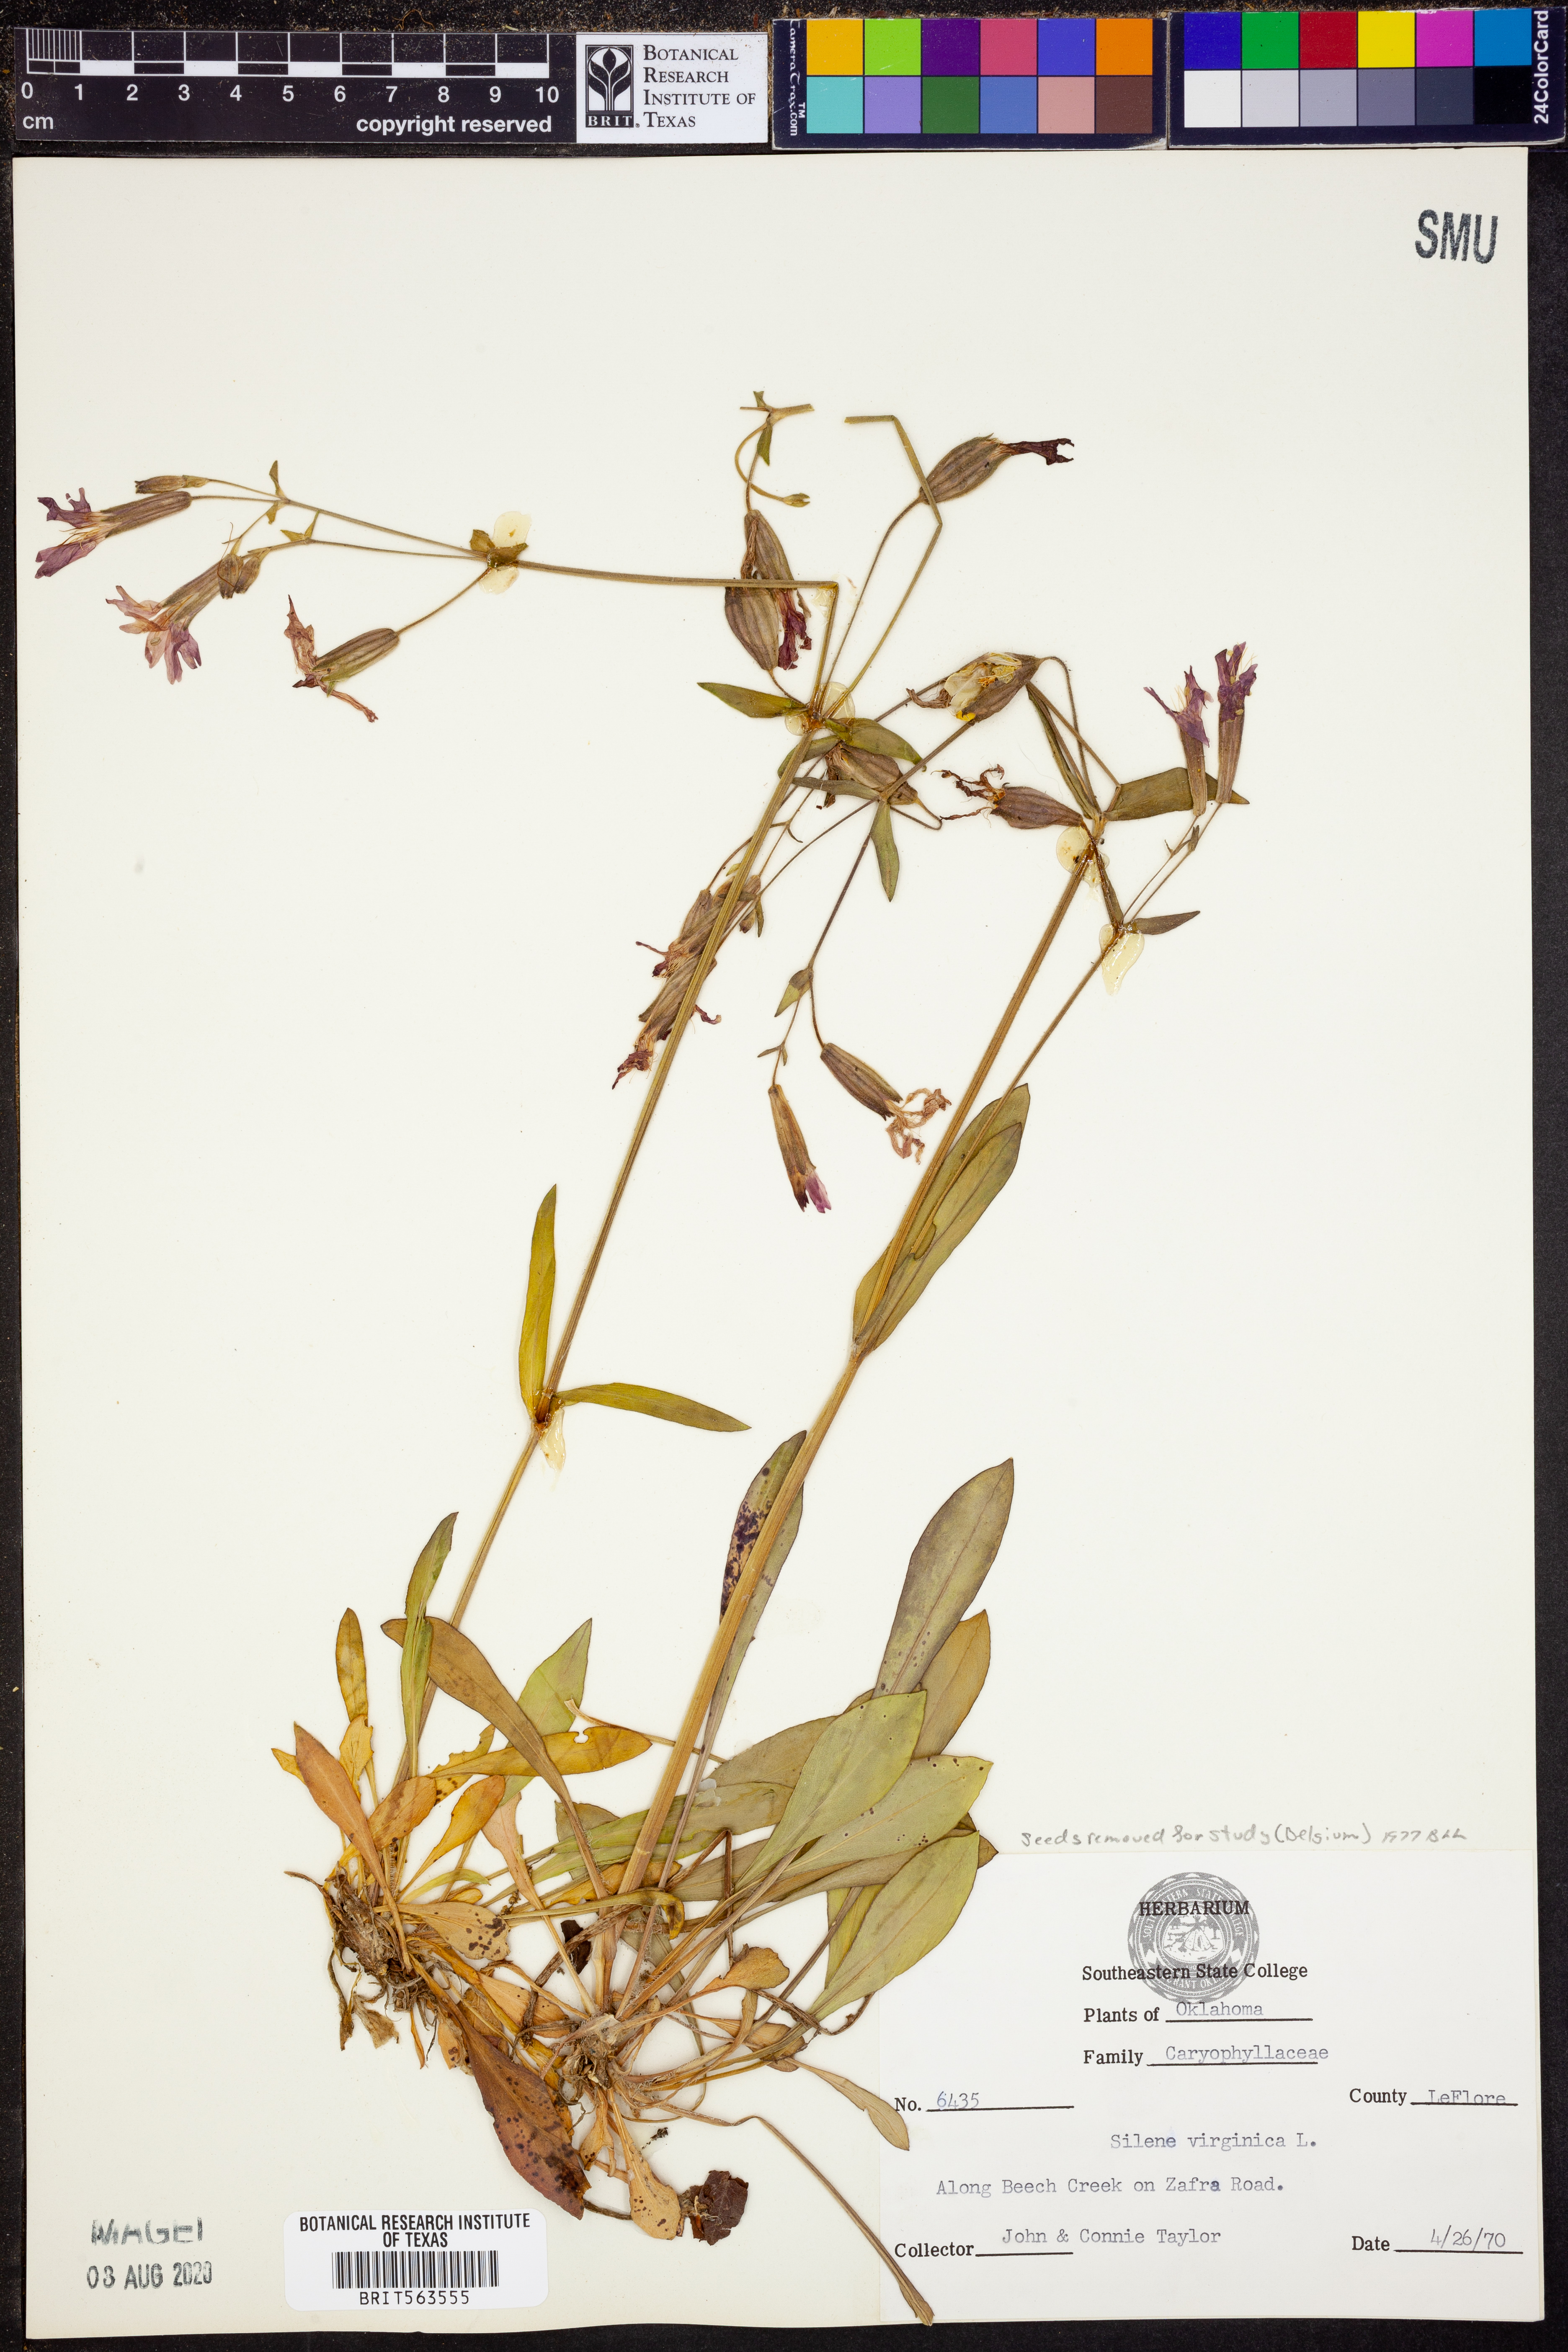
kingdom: Plantae
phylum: Tracheophyta
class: Magnoliopsida
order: Caryophyllales
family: Caryophyllaceae
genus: Silene
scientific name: Silene virginica
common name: Fire-pink
